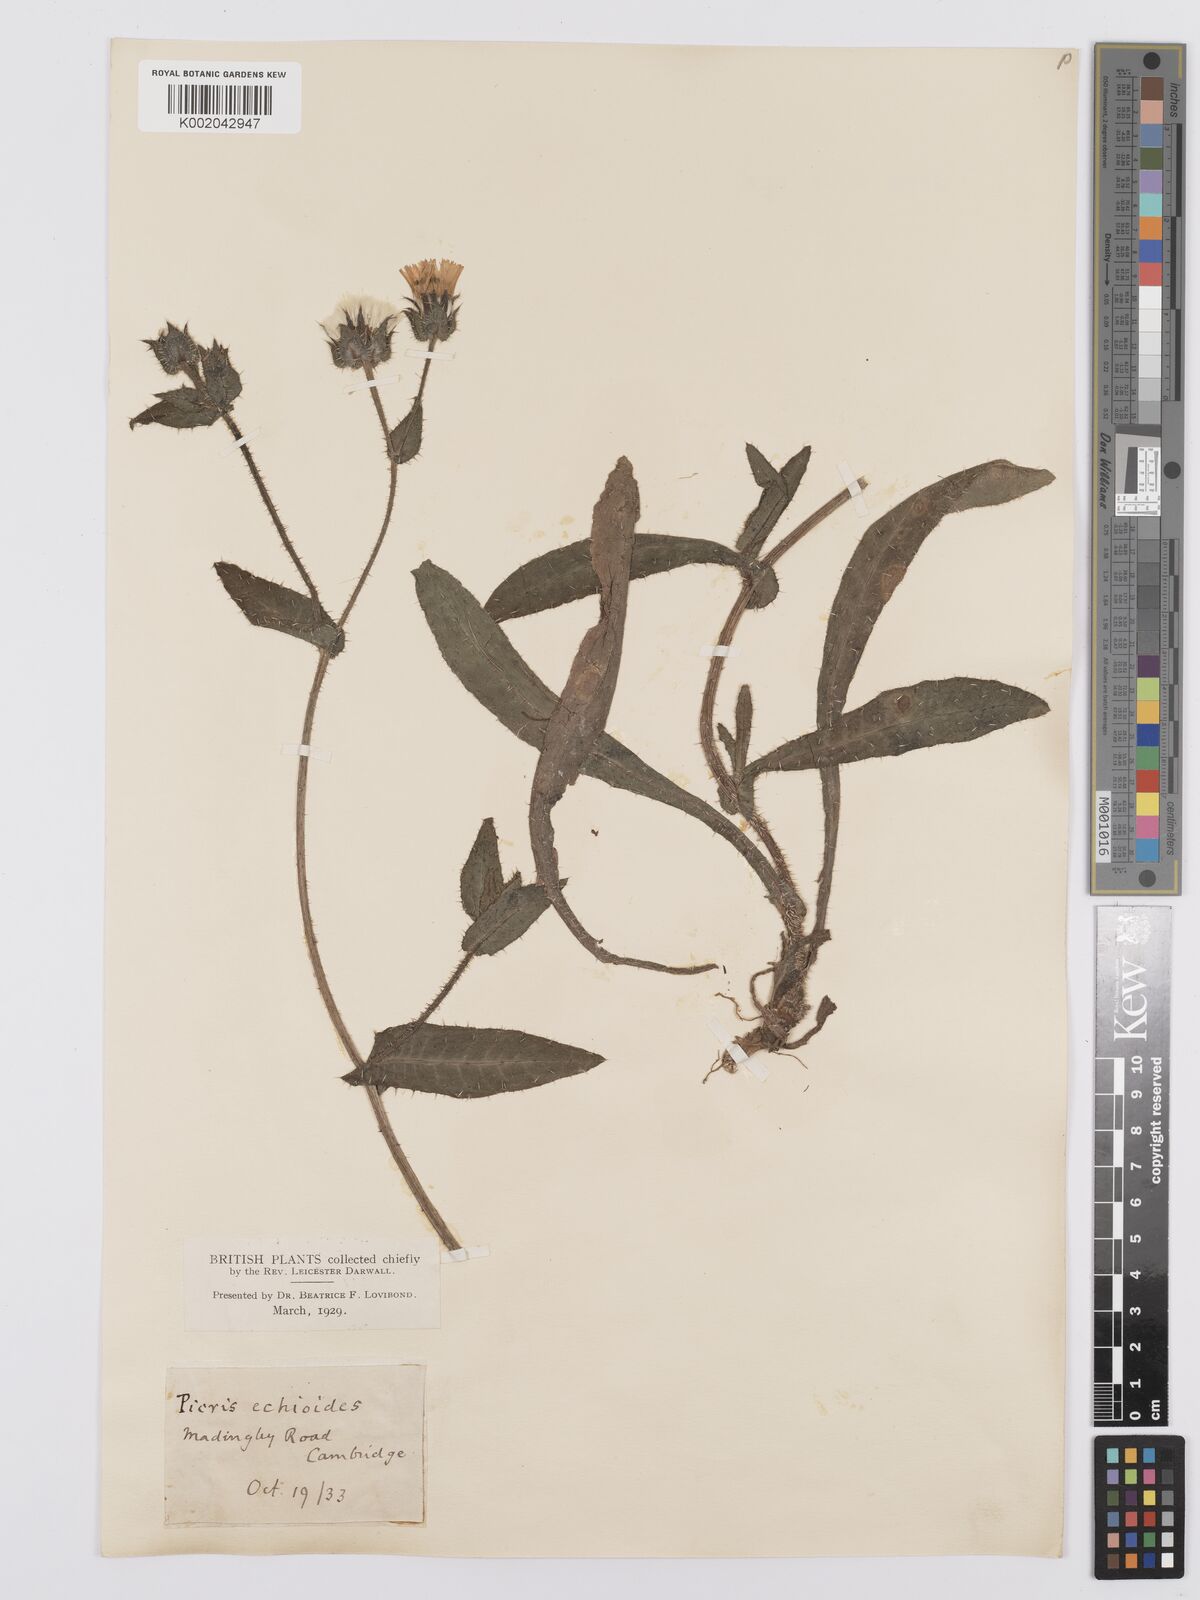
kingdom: Plantae
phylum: Tracheophyta
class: Magnoliopsida
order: Asterales
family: Asteraceae
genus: Helminthotheca
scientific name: Helminthotheca echioides
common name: Ox-tongue
